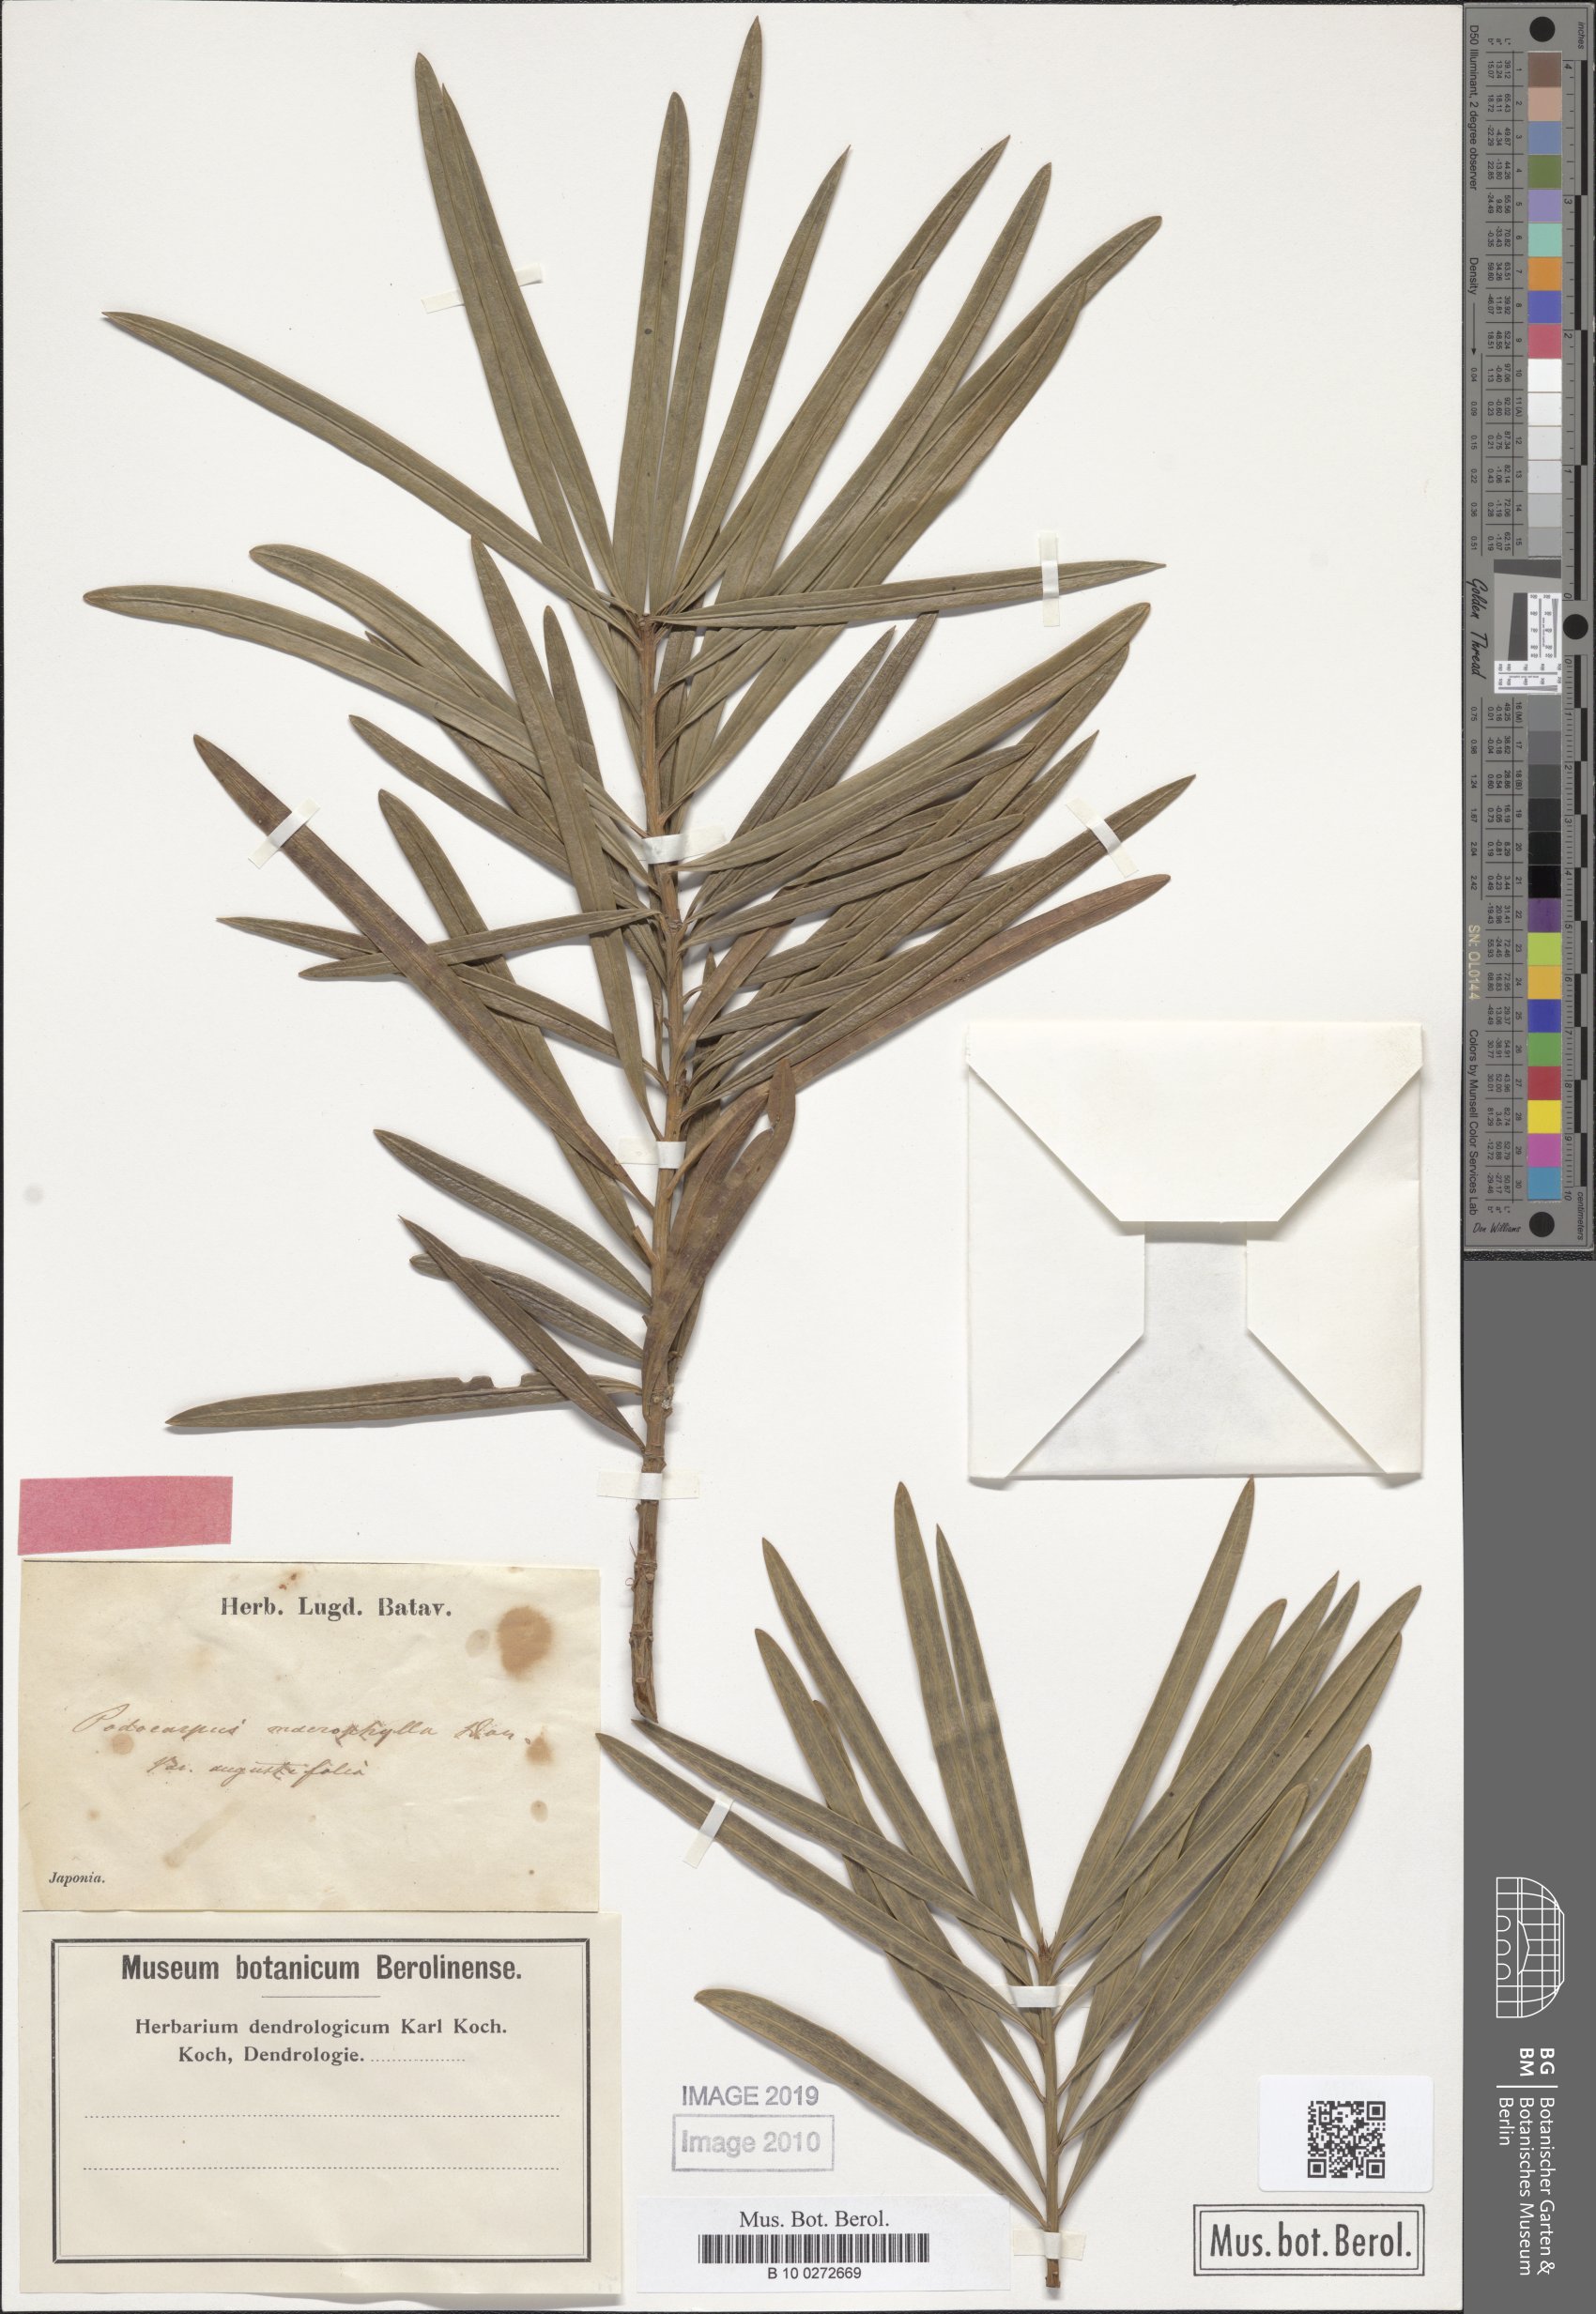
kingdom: Plantae
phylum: Tracheophyta
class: Pinopsida
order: Pinales
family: Podocarpaceae
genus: Podocarpus
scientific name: Podocarpus macrophyllus
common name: Japanese yew
